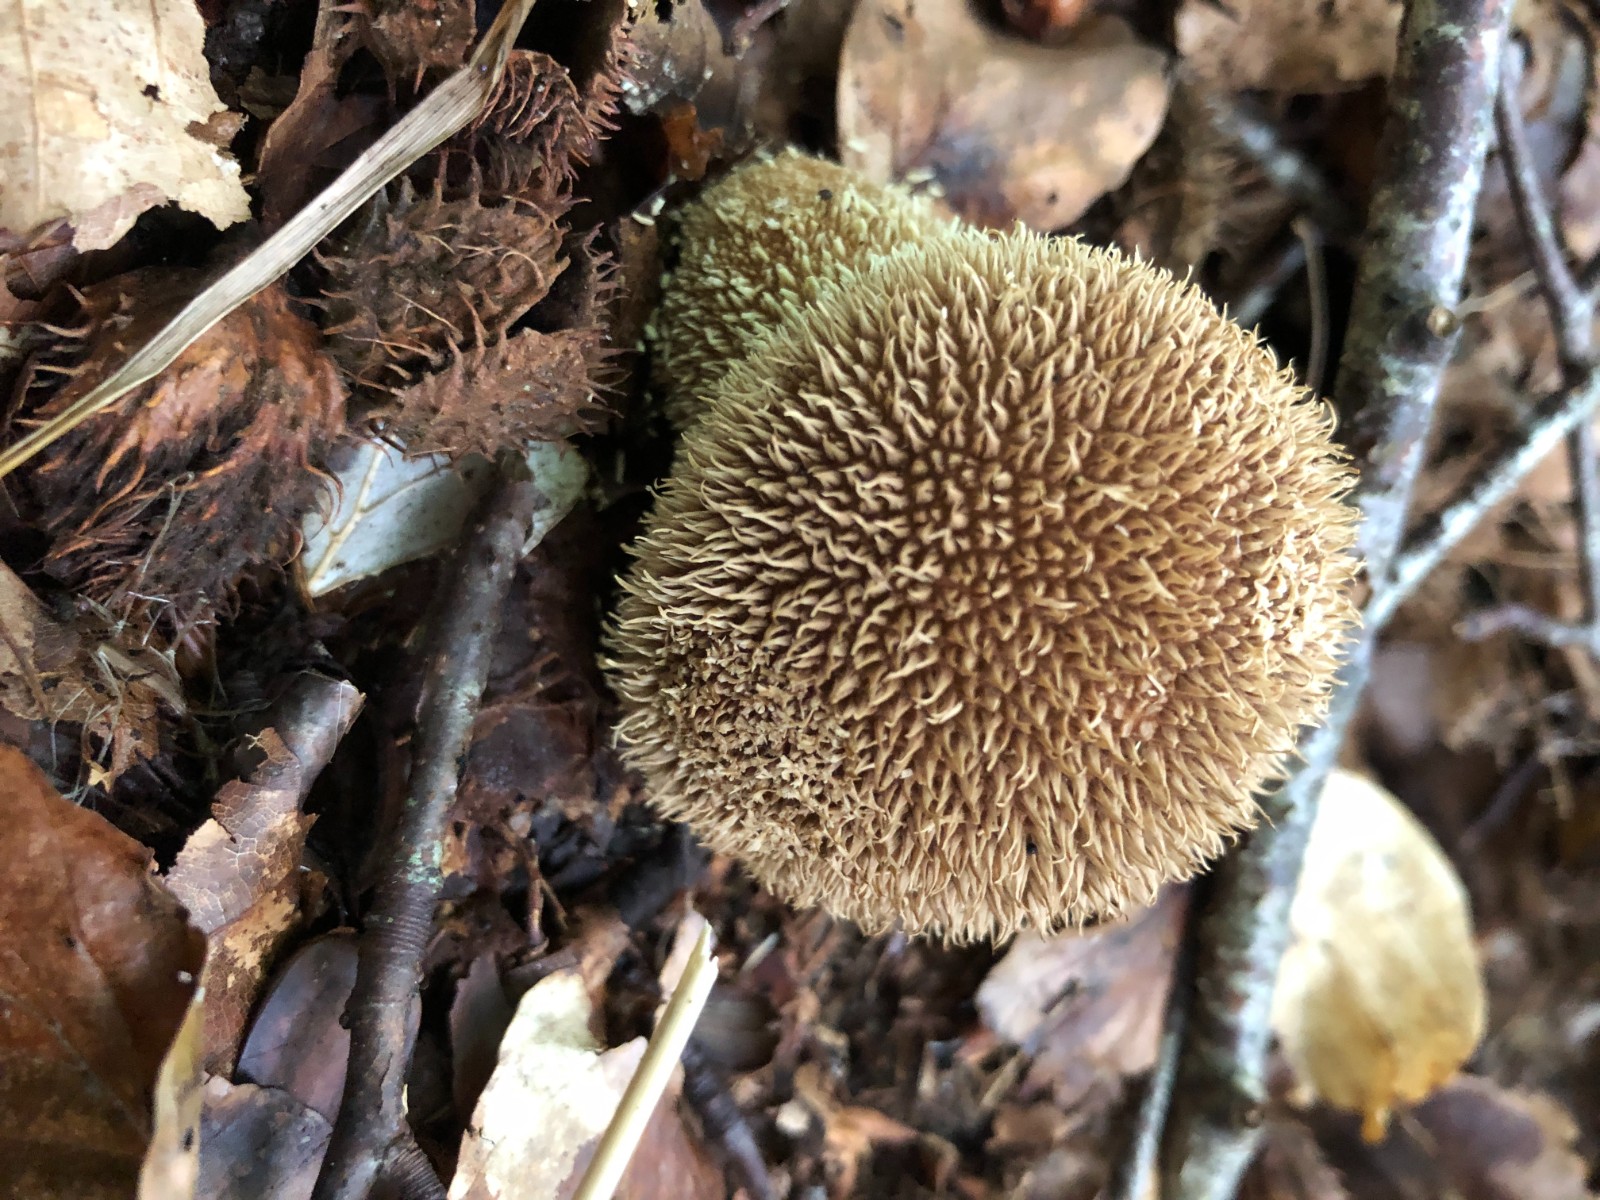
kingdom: Fungi
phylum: Basidiomycota
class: Agaricomycetes
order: Agaricales
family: Lycoperdaceae
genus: Lycoperdon
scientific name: Lycoperdon echinatum
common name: pindsvine-støvbold
